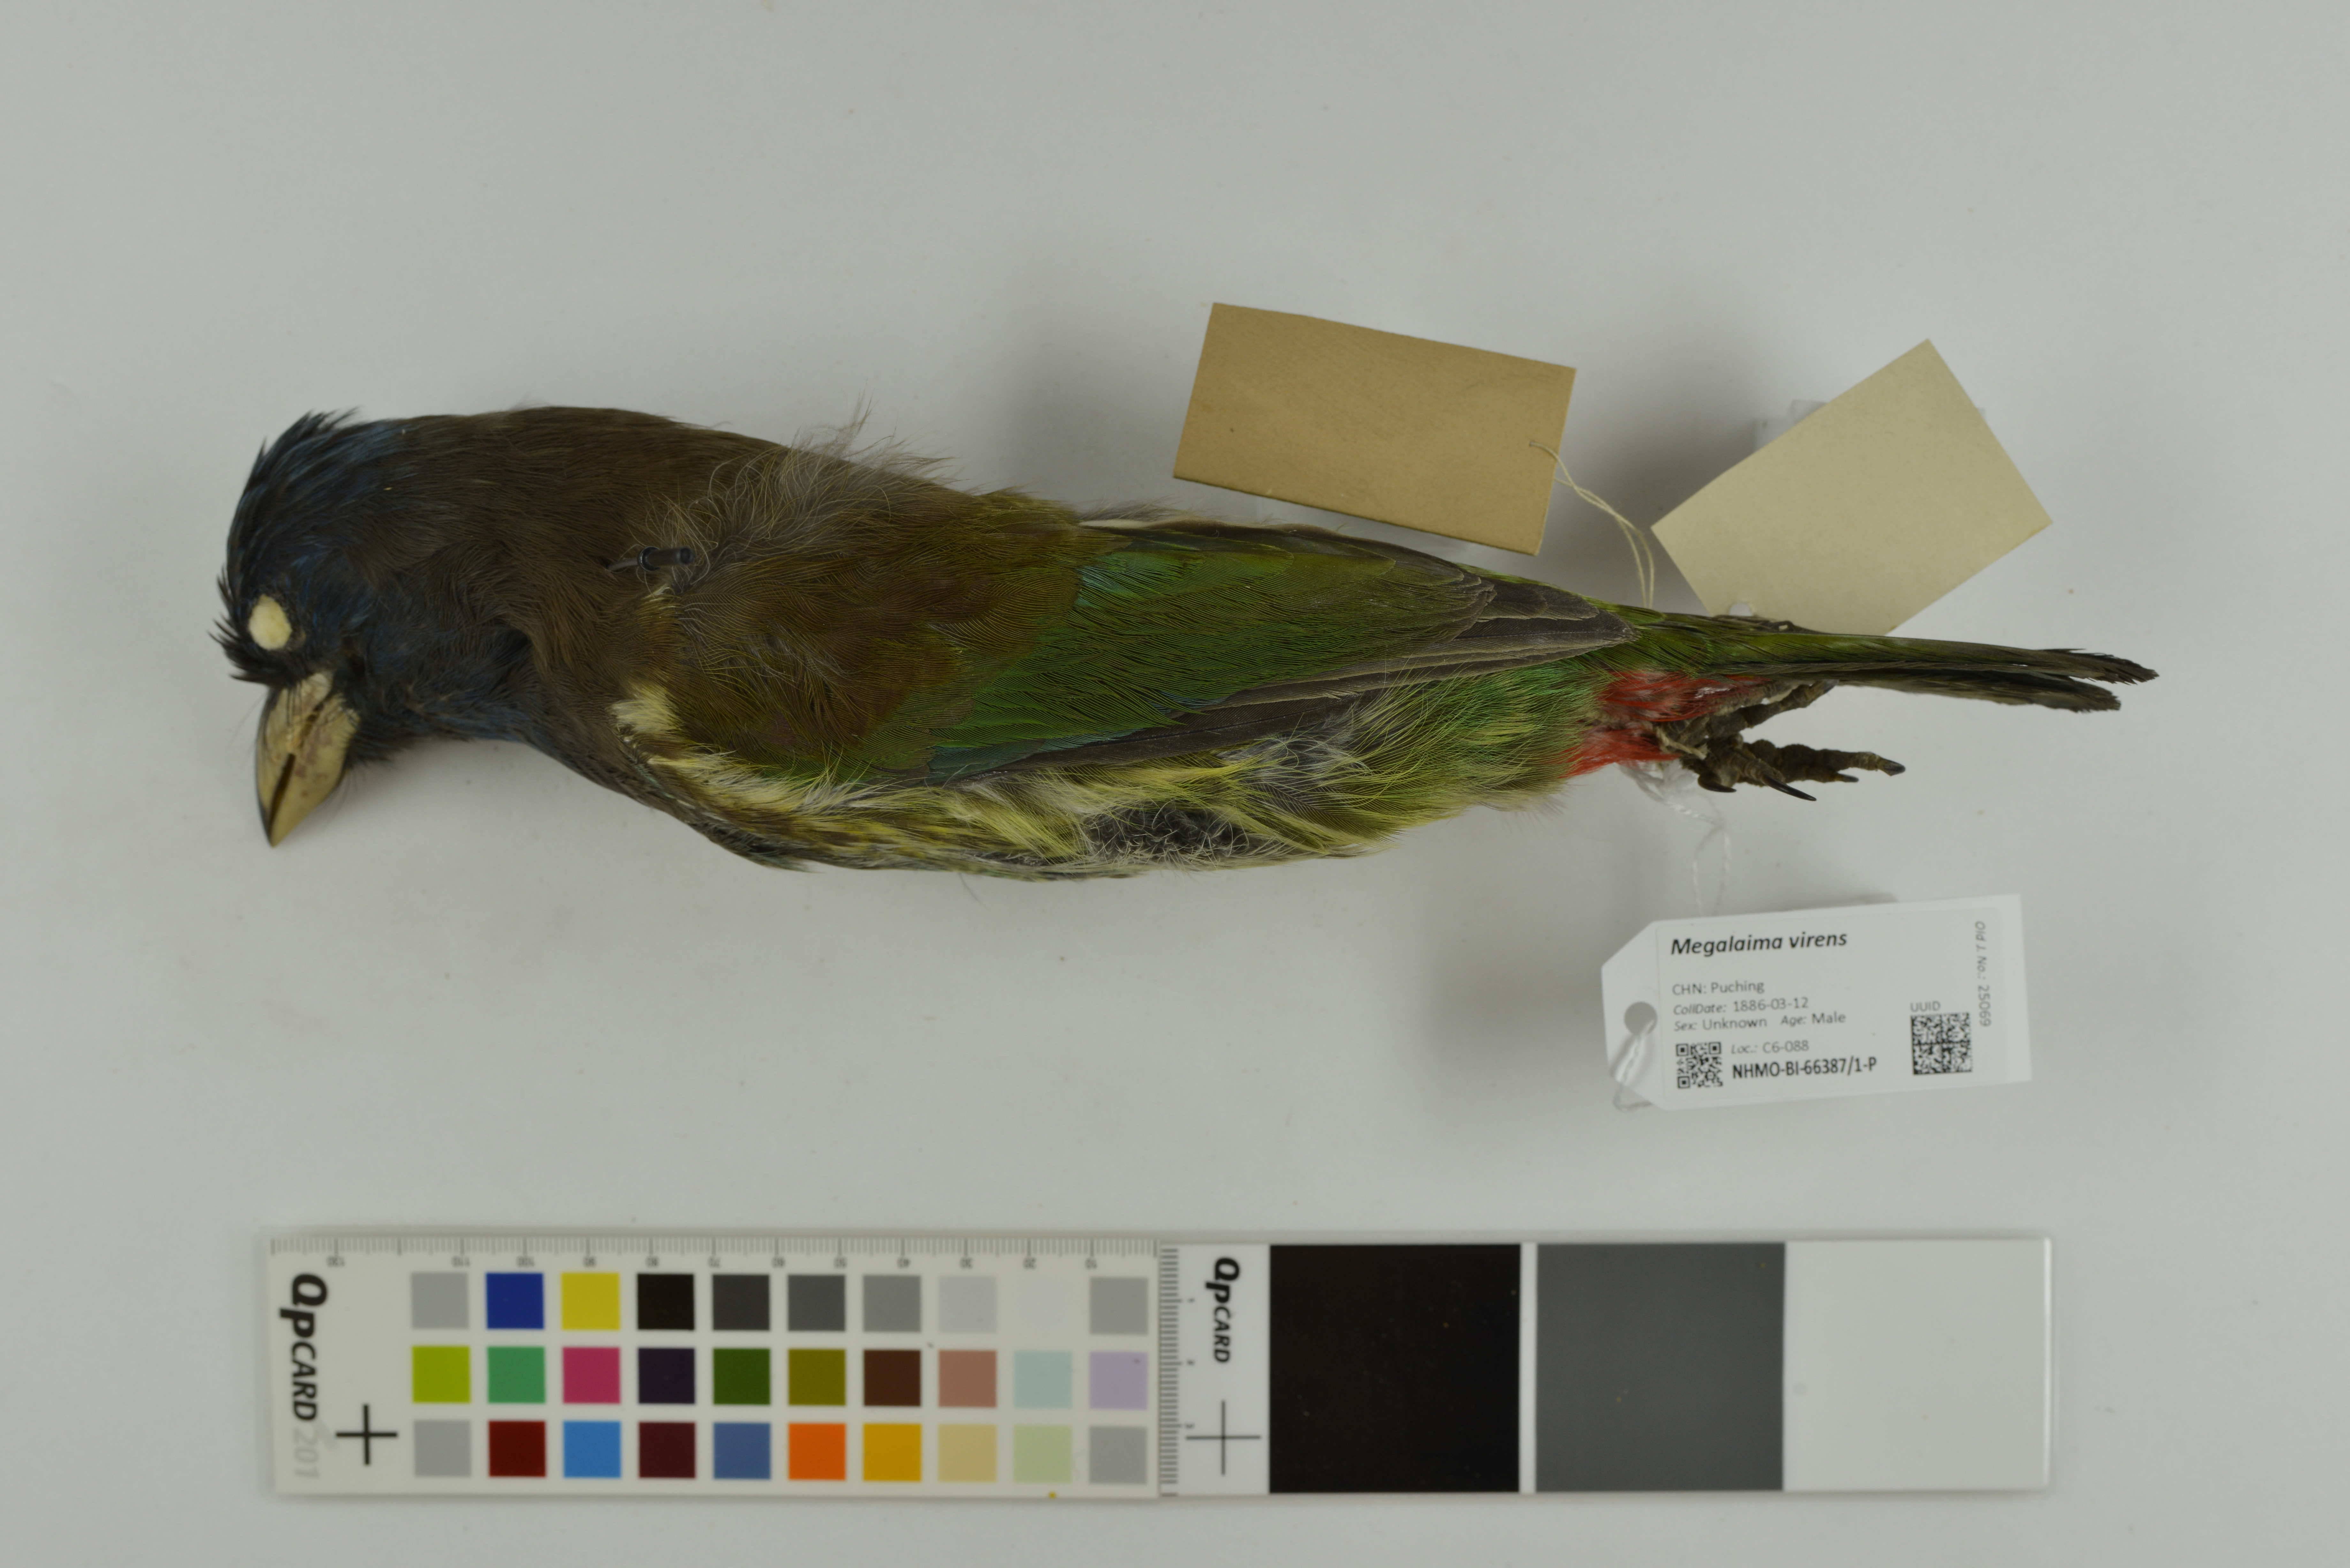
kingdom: Animalia
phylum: Chordata
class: Aves
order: Piciformes
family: Megalaimidae
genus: Psilopogon
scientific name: Psilopogon virens
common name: Great barbet
